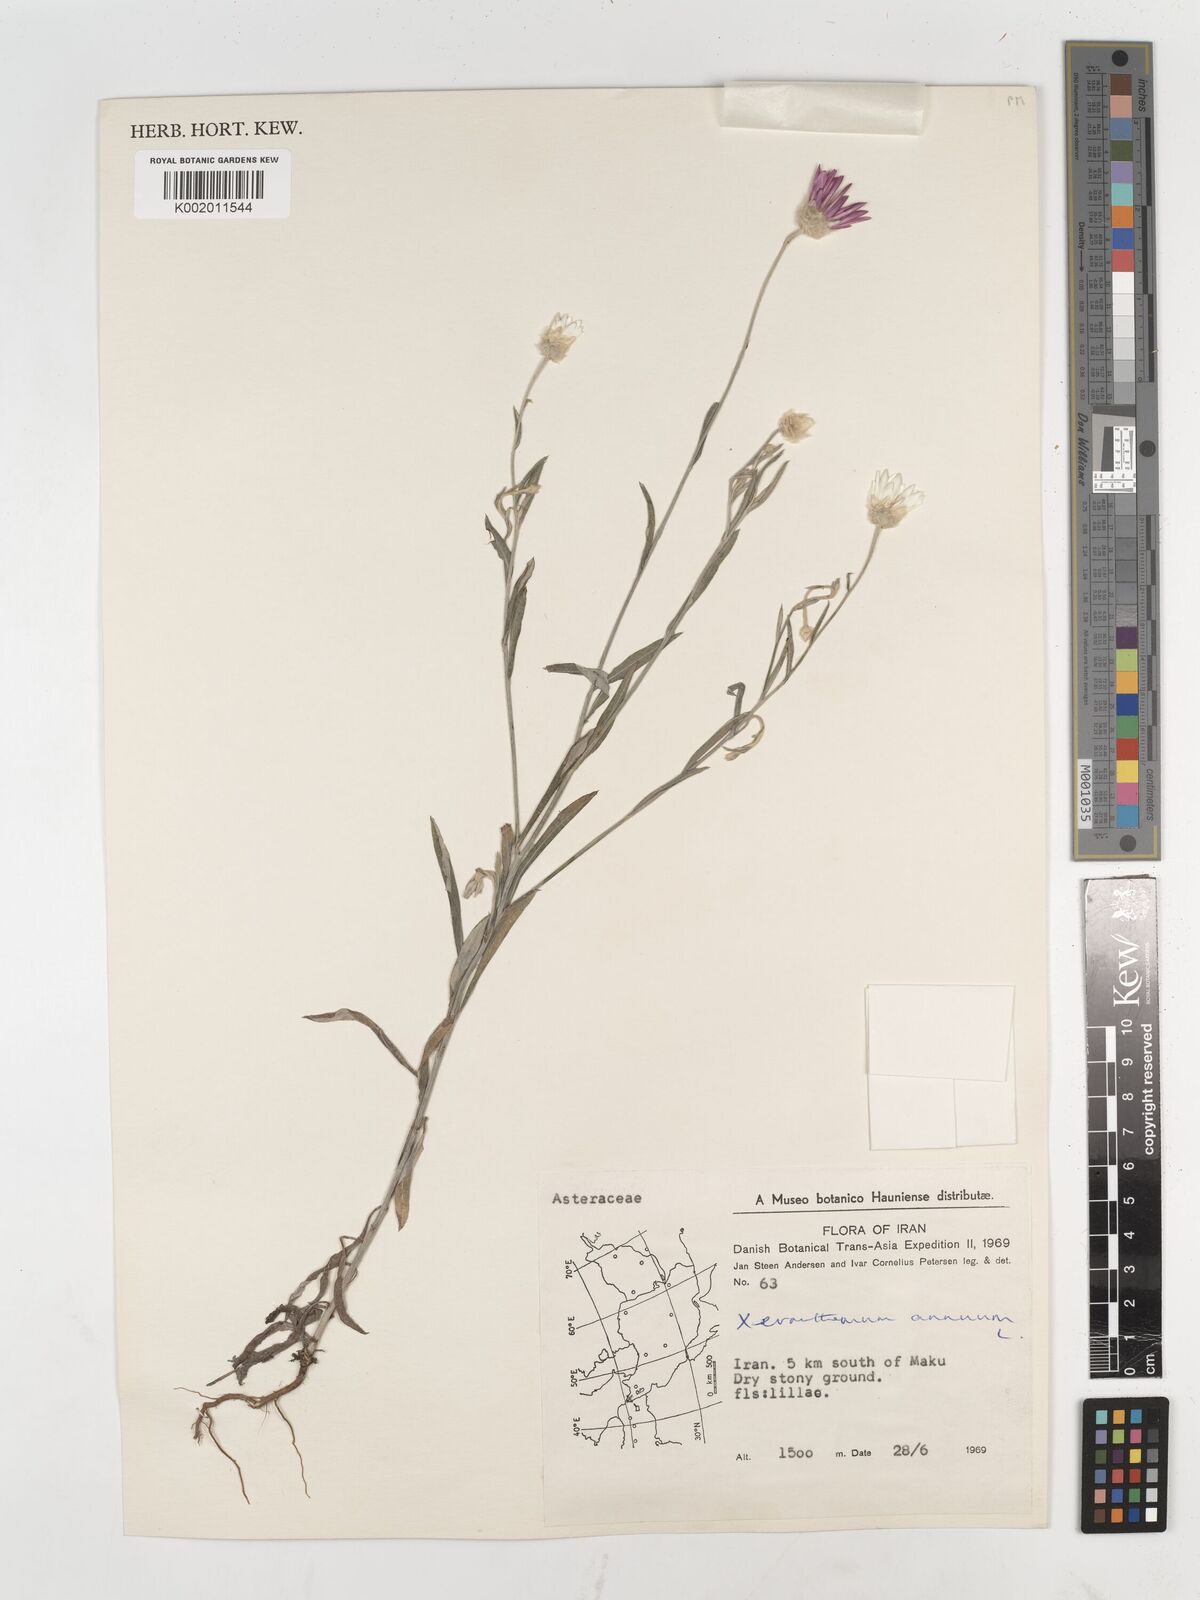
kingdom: Plantae
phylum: Tracheophyta
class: Magnoliopsida
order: Asterales
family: Asteraceae
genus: Xeranthemum
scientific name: Xeranthemum annuum
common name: Immortelle
